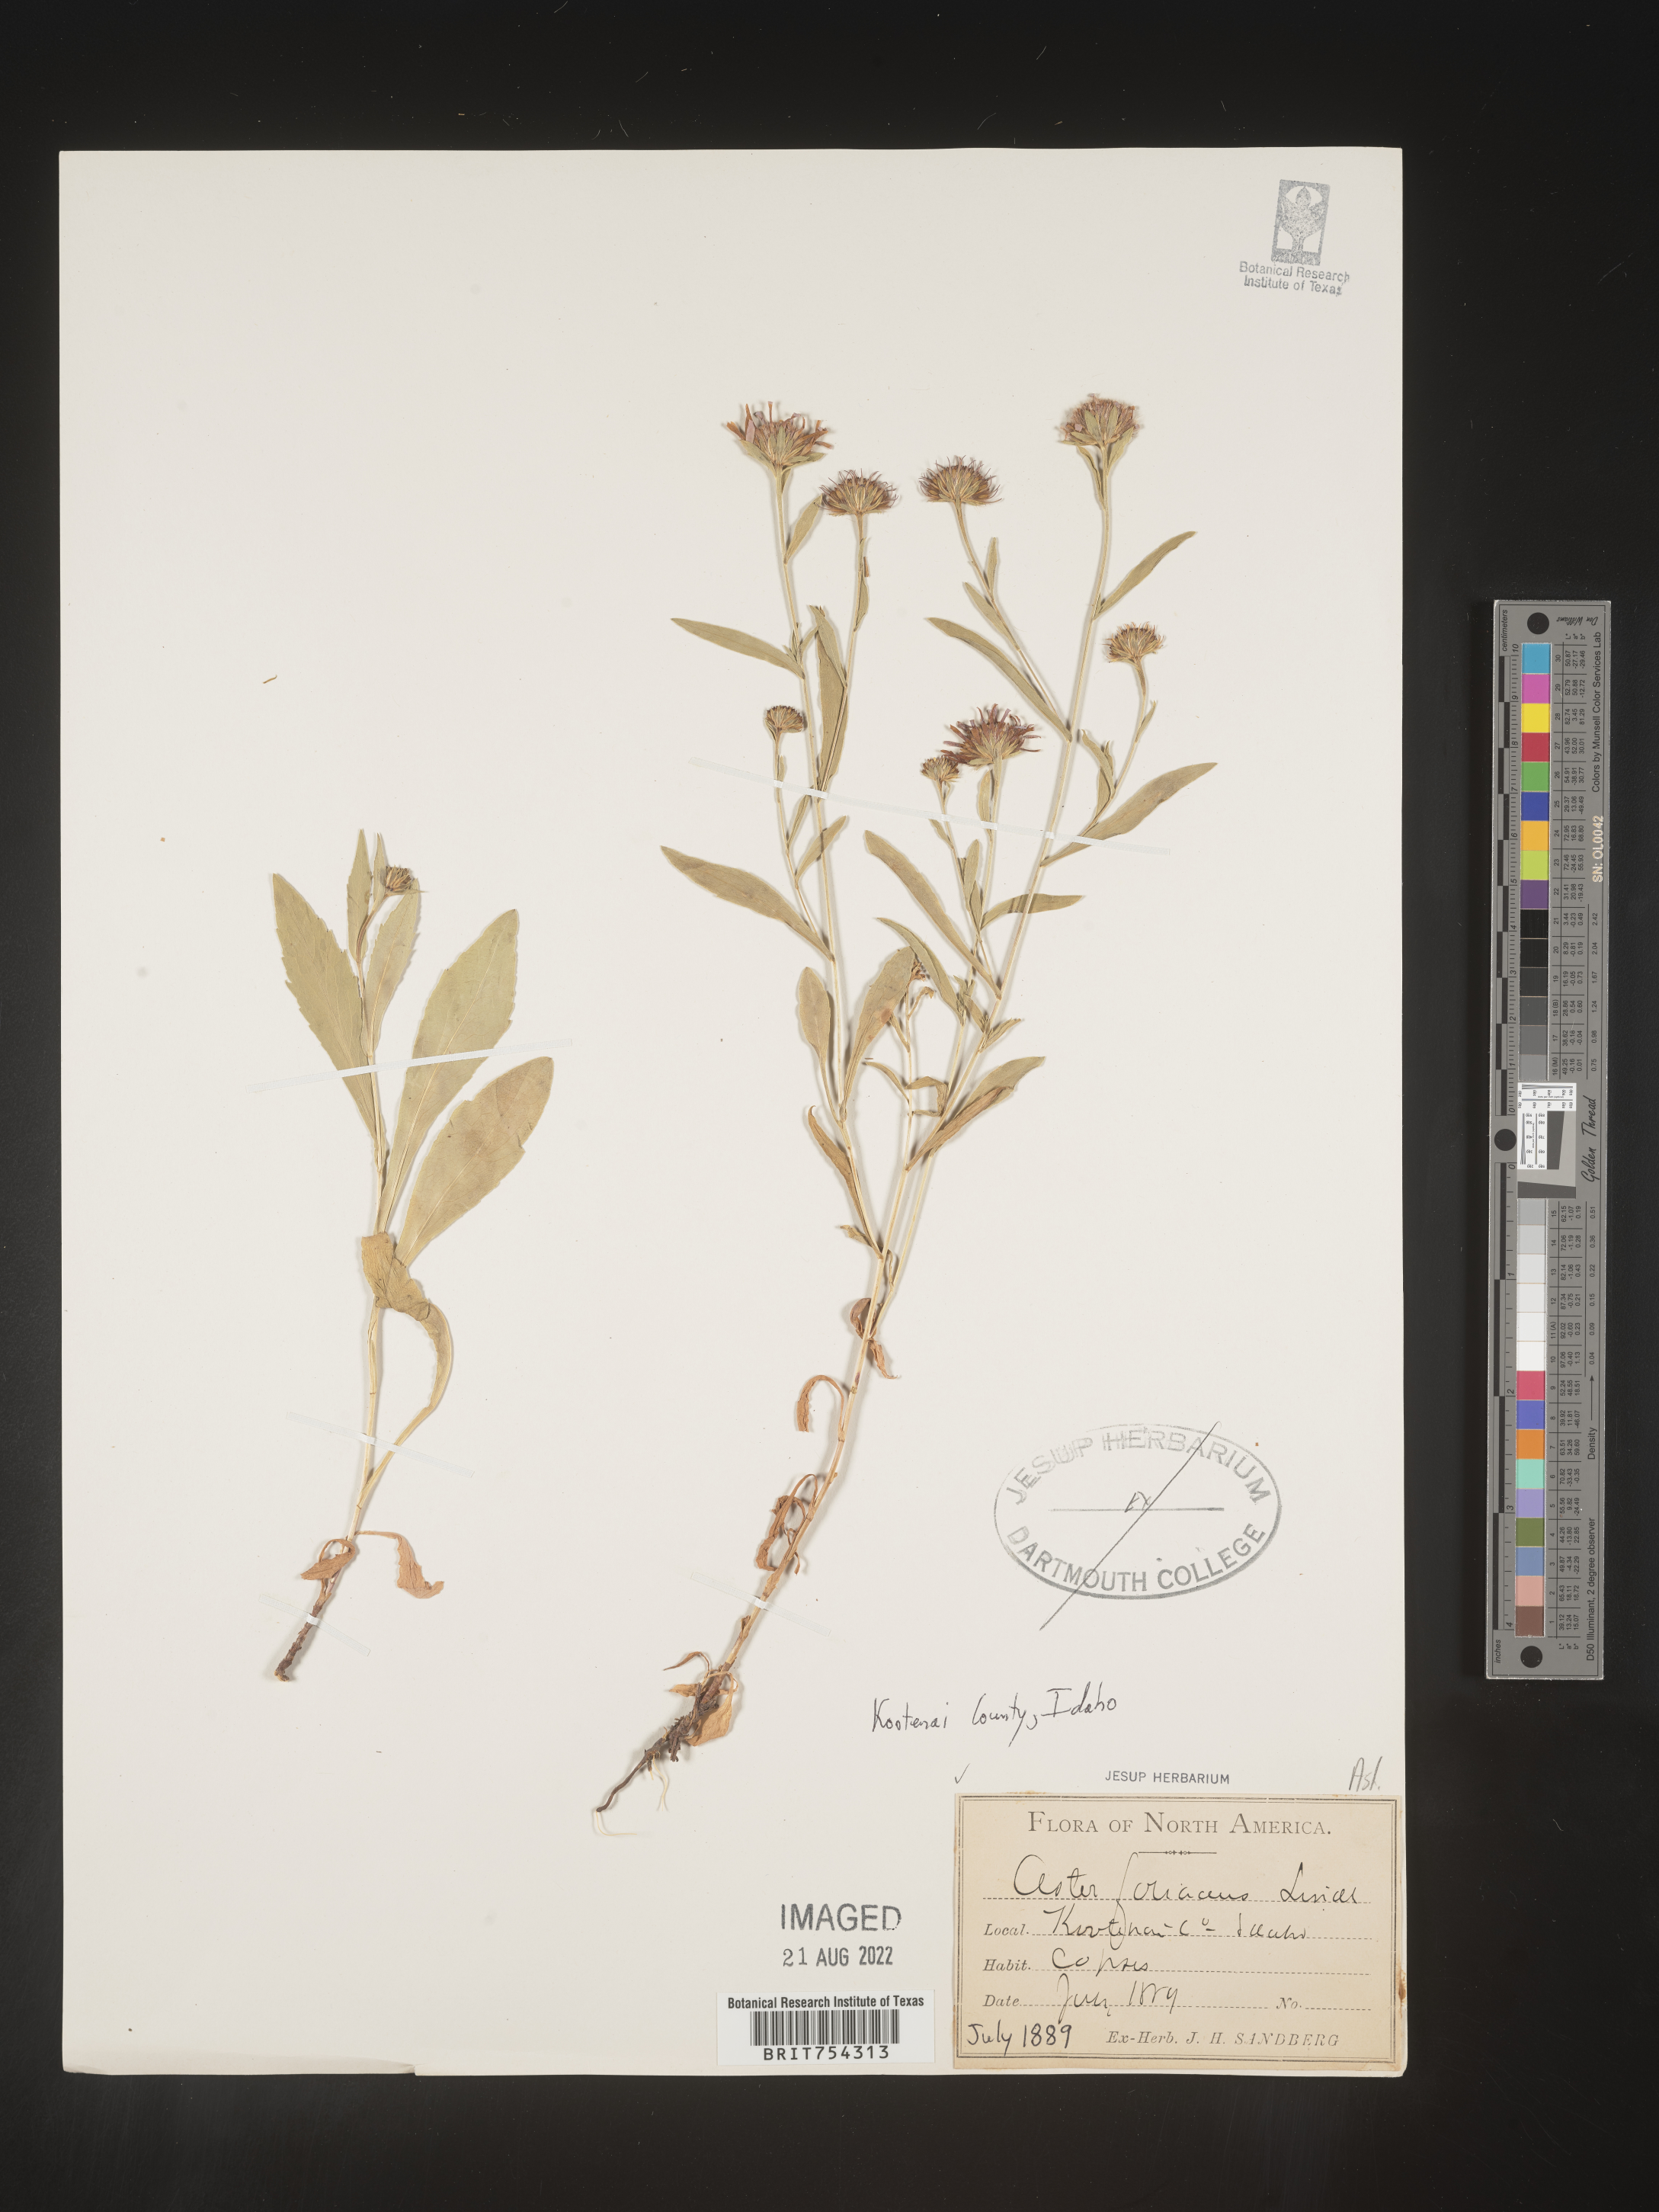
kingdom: Plantae
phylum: Tracheophyta
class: Magnoliopsida
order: Asterales
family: Asteraceae
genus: Symphyotrichum
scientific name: Symphyotrichum subspicatum
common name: Douglas' aster
